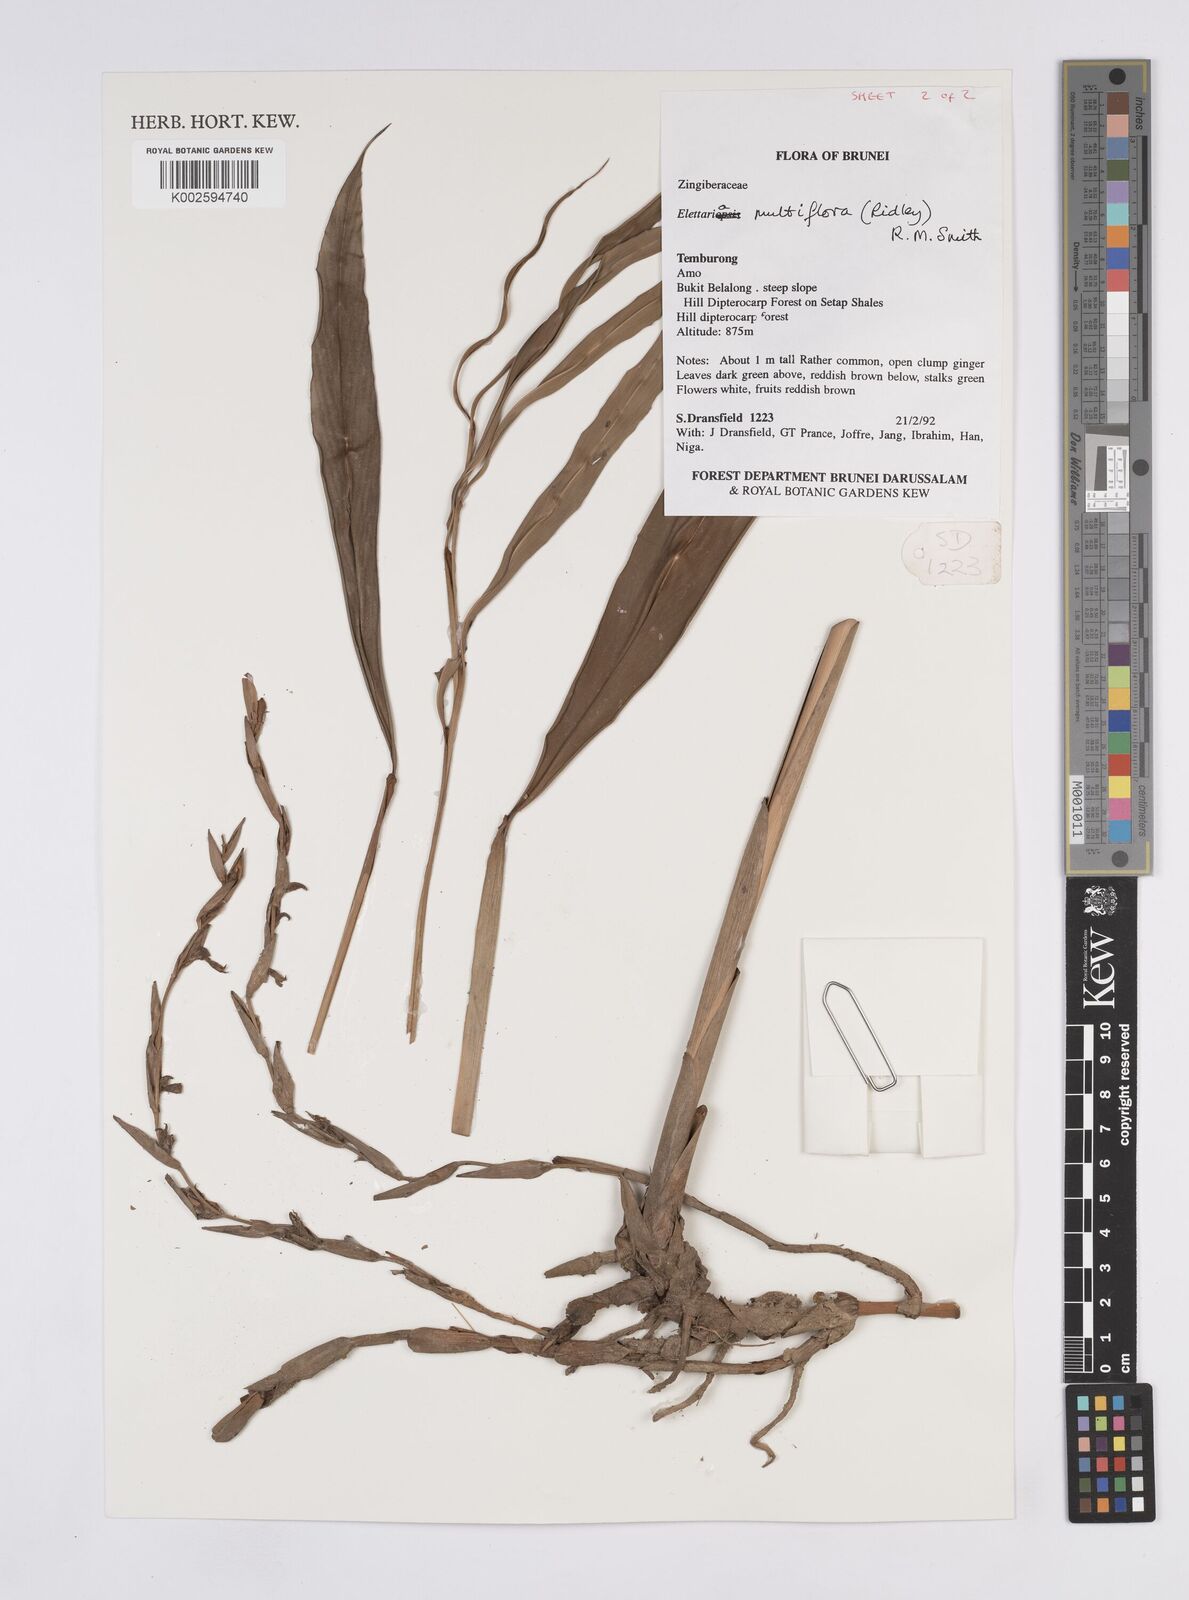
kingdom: Plantae
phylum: Tracheophyta
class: Liliopsida
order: Zingiberales
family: Zingiberaceae
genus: Sulettaria
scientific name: Sulettaria linearicrista
